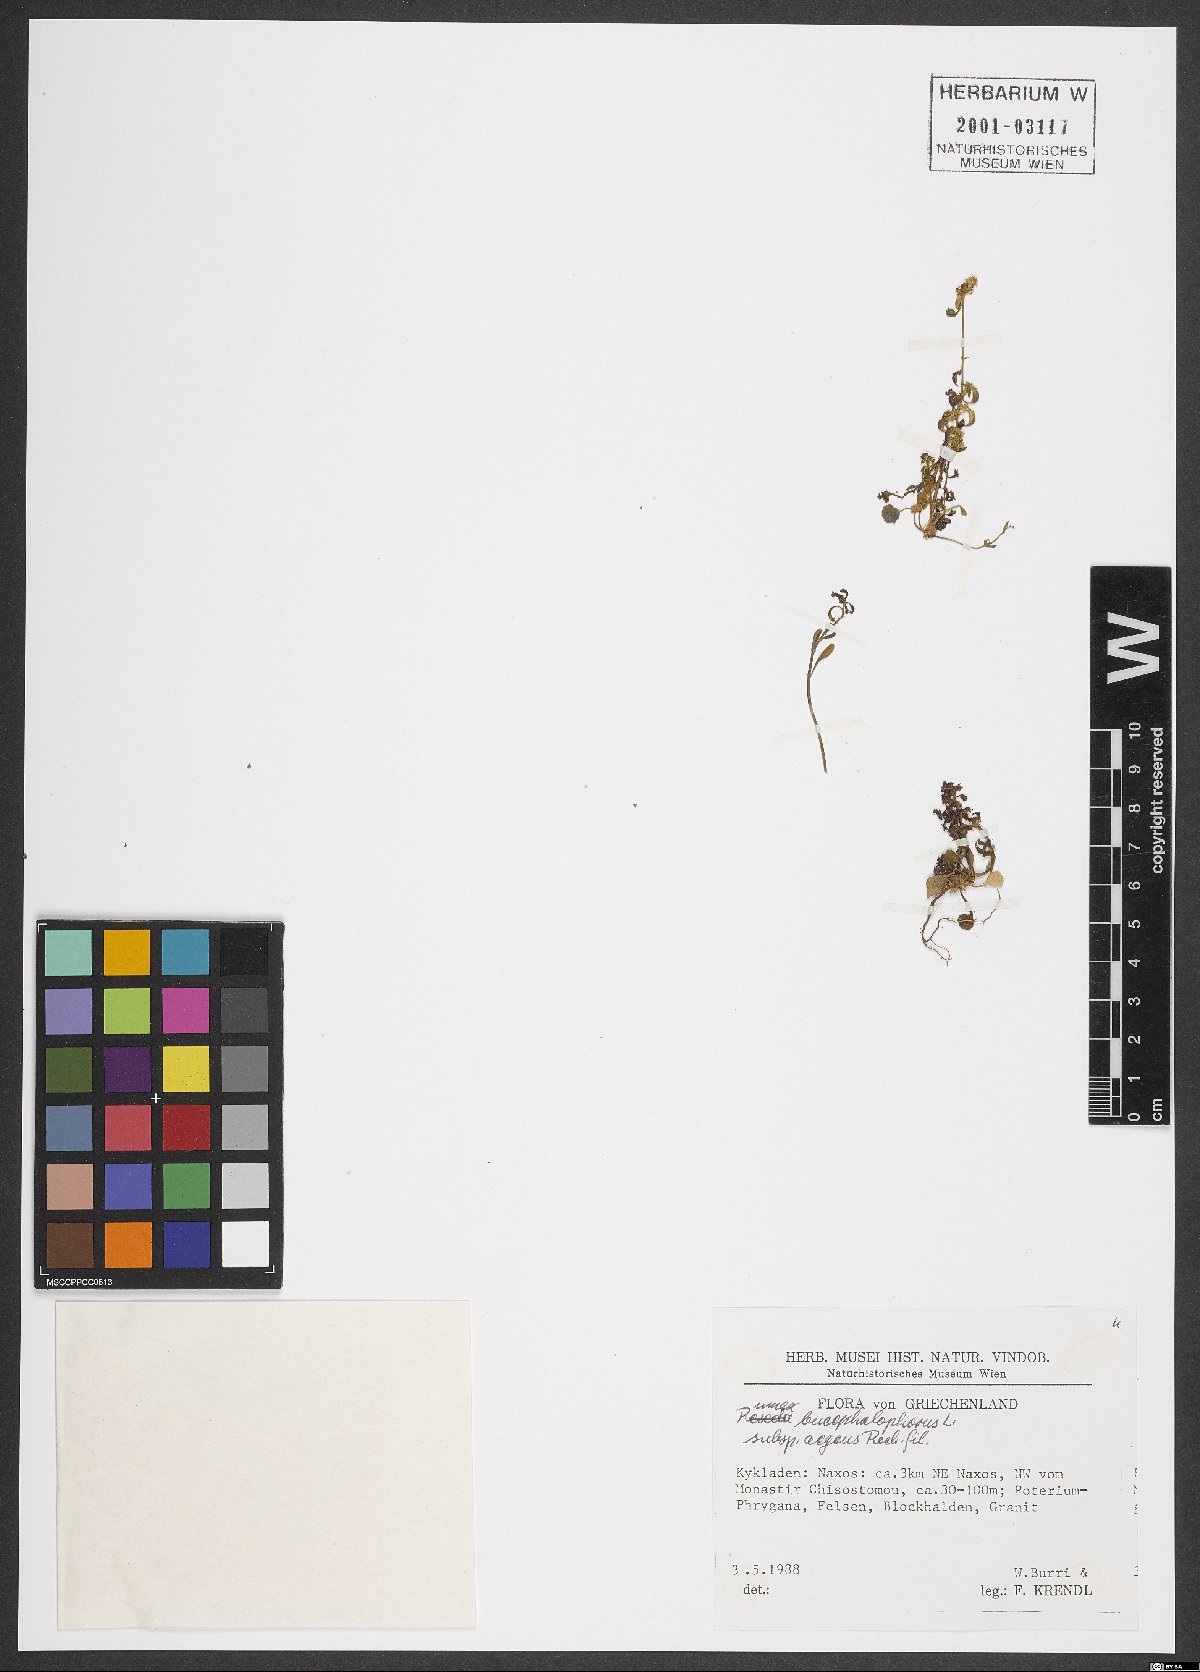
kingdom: Plantae
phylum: Tracheophyta
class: Magnoliopsida
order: Caryophyllales
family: Polygonaceae
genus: Rumex
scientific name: Rumex bucephalophorus
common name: Red dock
